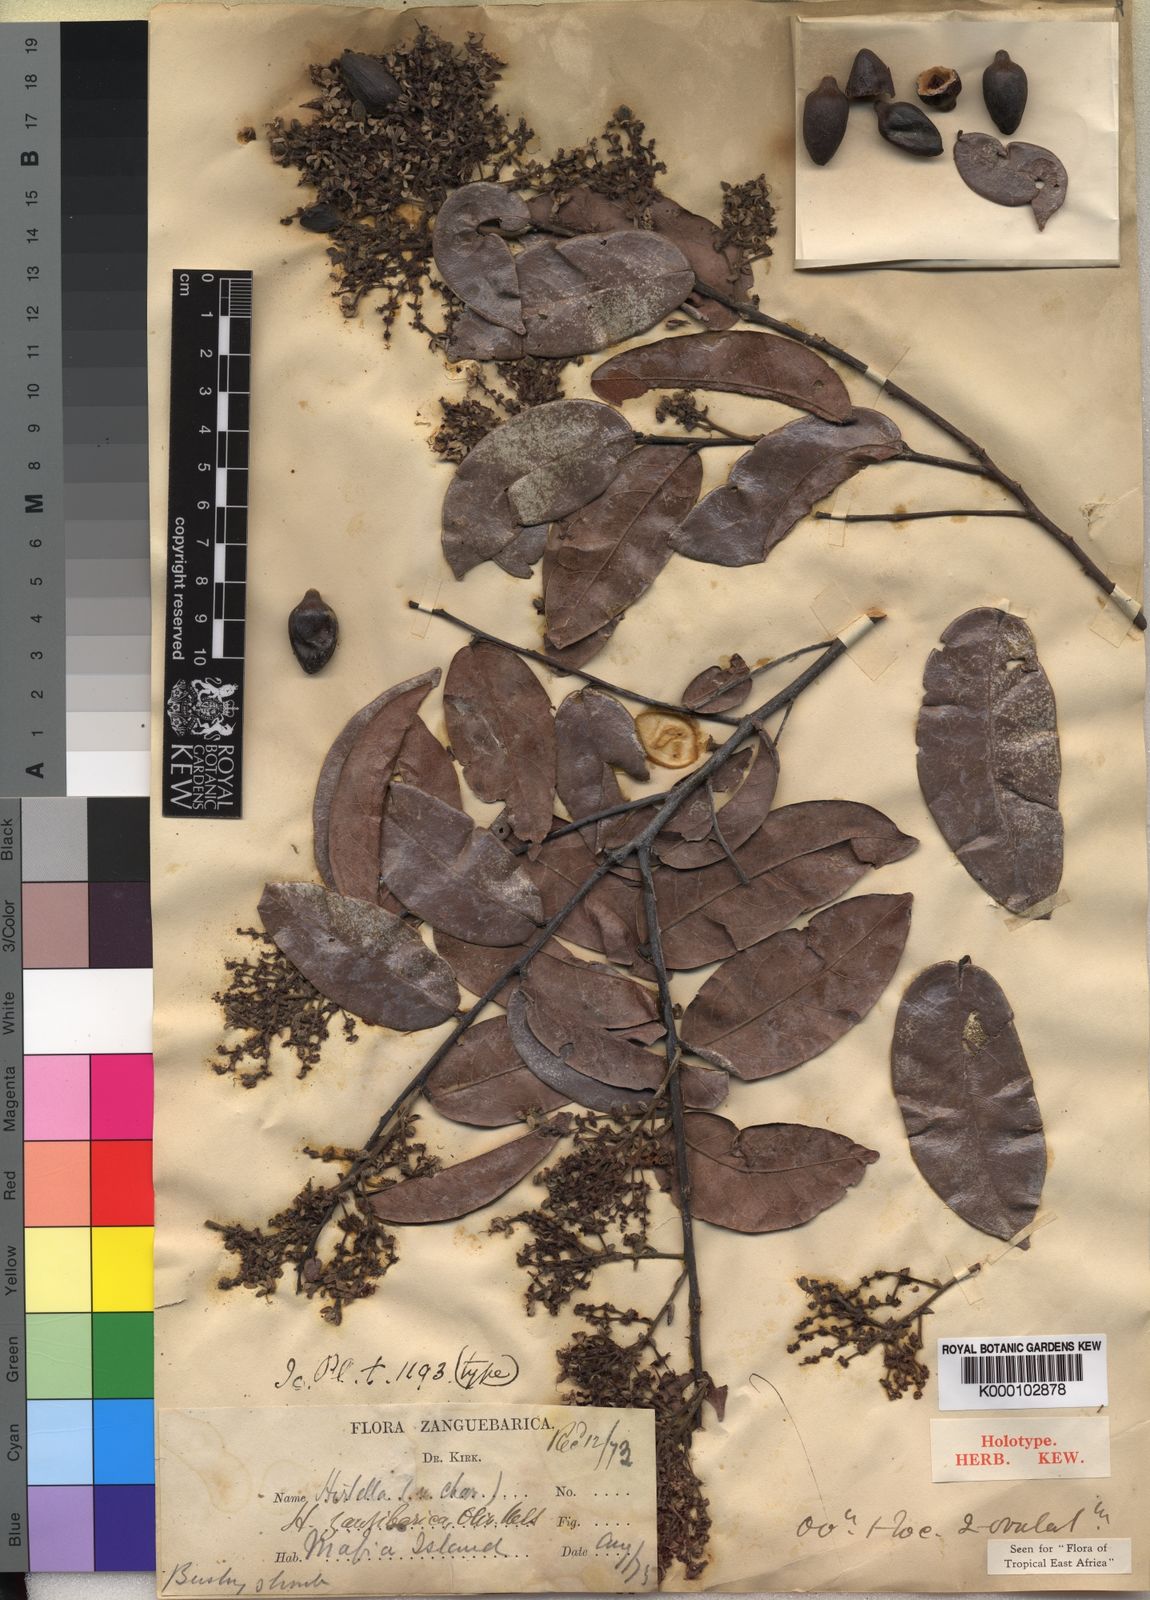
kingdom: Plantae
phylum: Tracheophyta
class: Magnoliopsida
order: Malpighiales
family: Chrysobalanaceae
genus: Hirtella
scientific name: Hirtella zanzibarica
